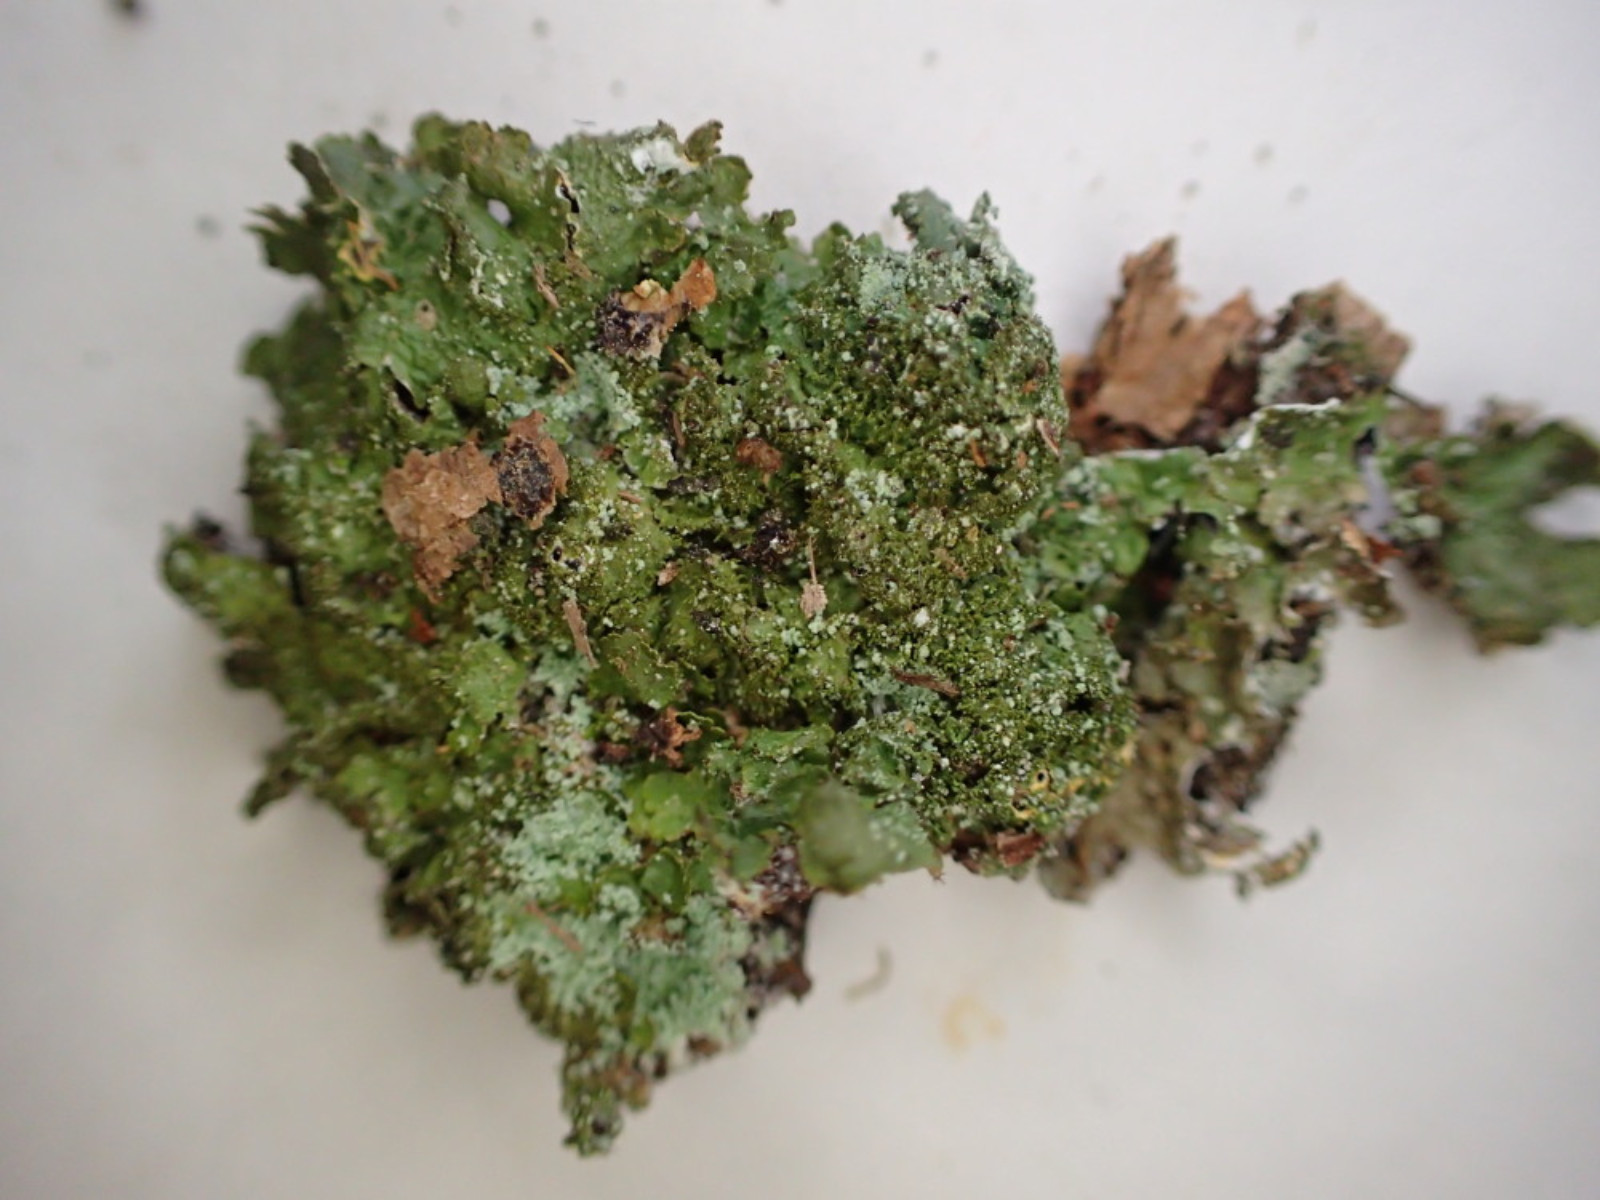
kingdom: Fungi
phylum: Ascomycota
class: Lecanoromycetes
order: Lecanorales
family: Parmeliaceae
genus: Melanelixia
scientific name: Melanelixia glabratula
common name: glinsende skållav
